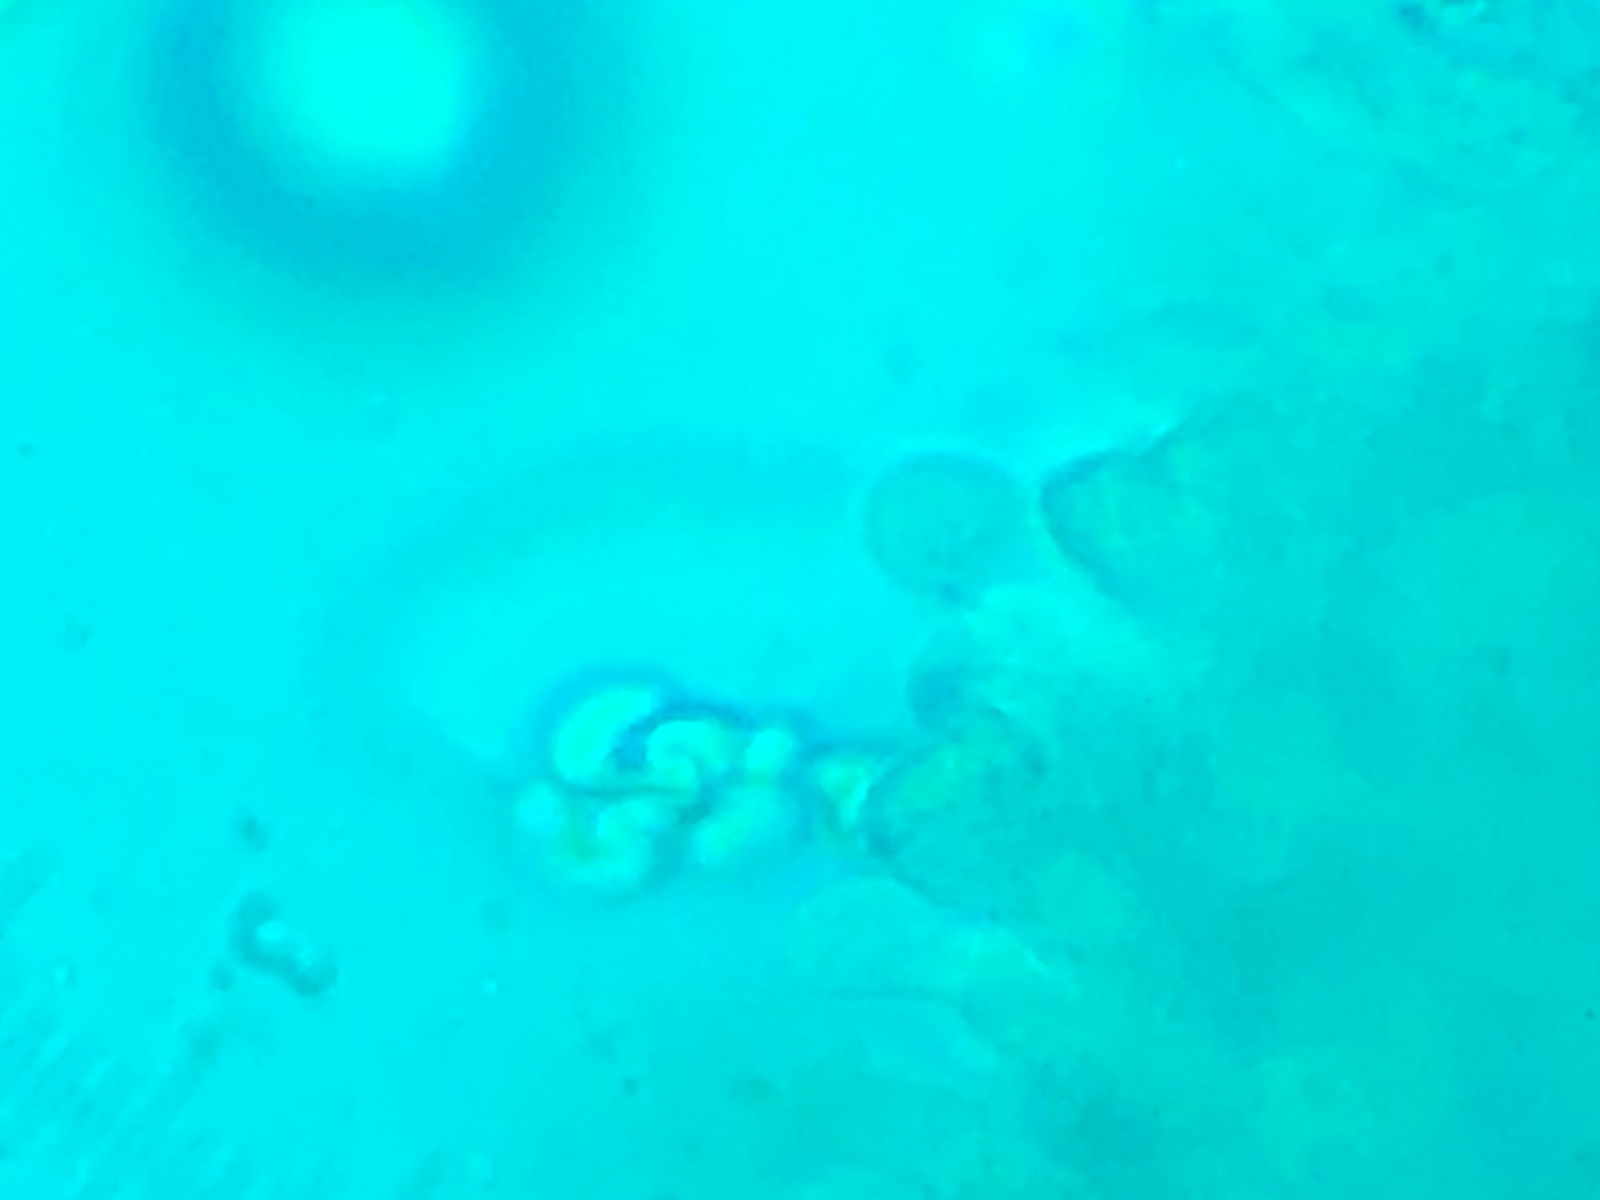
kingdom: Fungi
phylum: Basidiomycota
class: Agaricomycetes
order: Agaricales
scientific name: Agaricales
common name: champignonordenen
